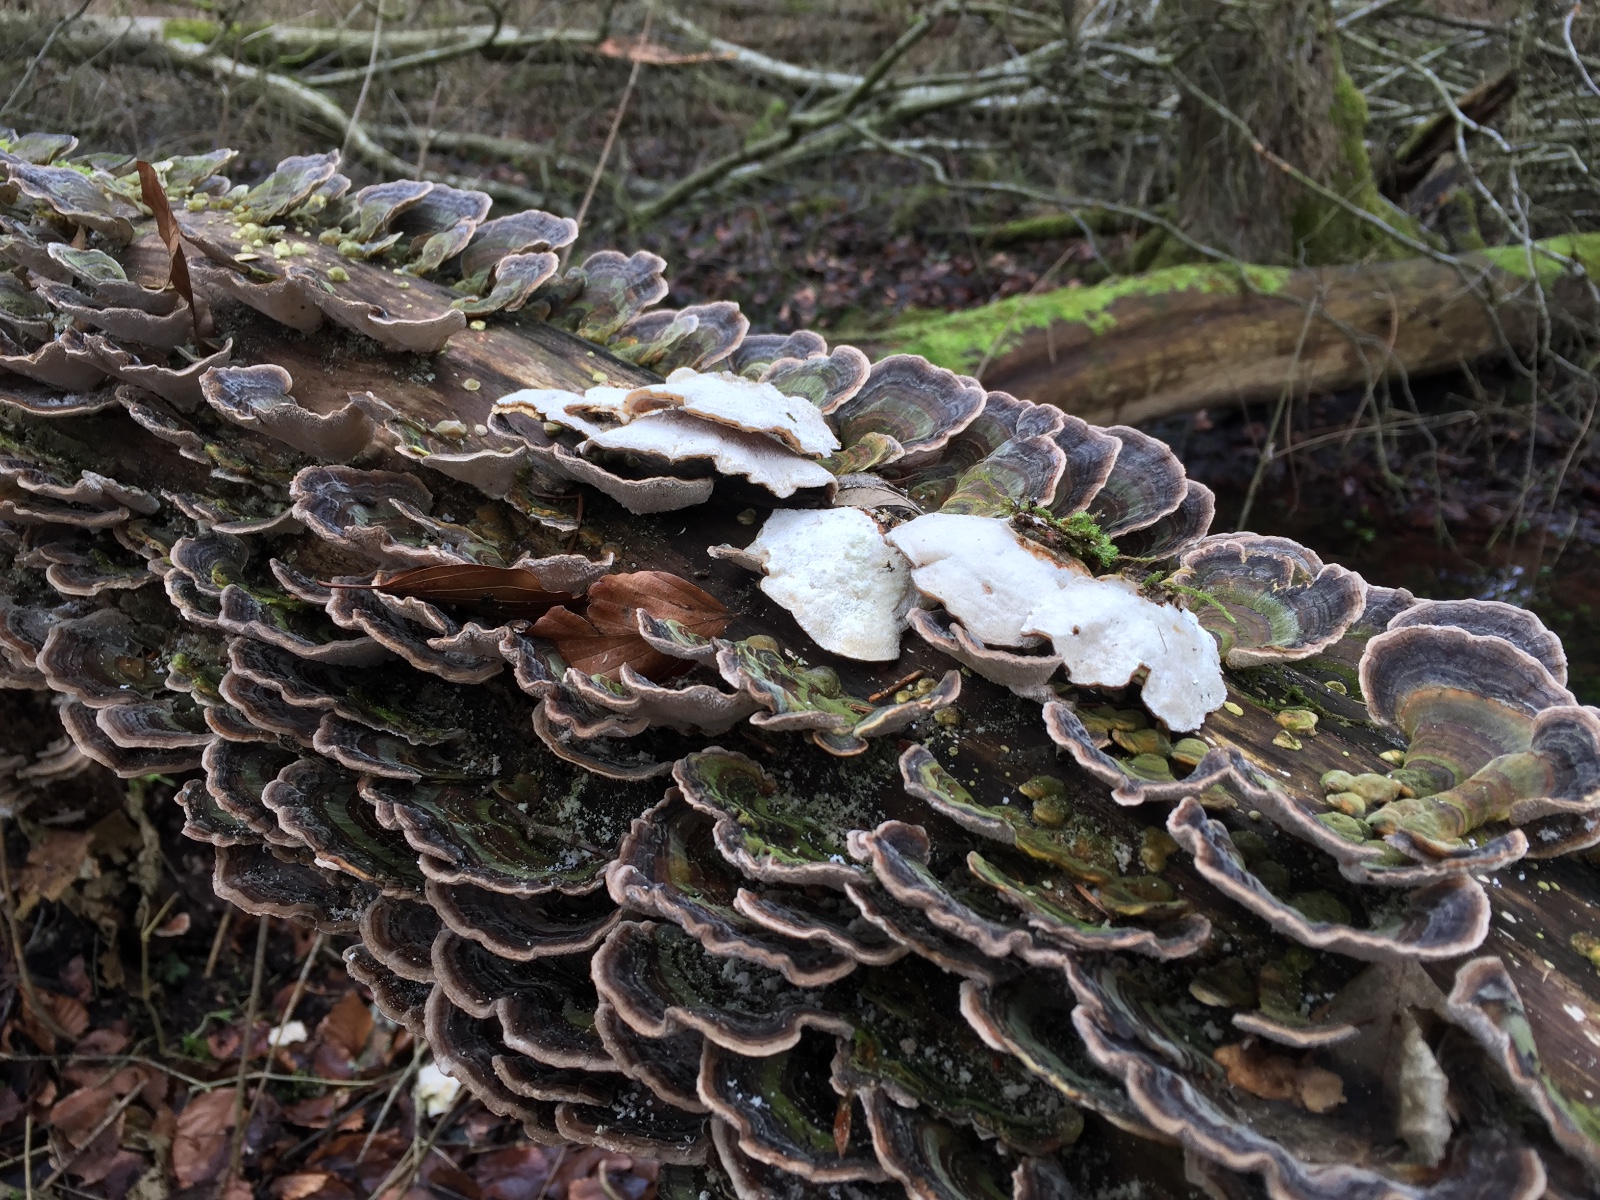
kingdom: Fungi
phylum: Basidiomycota
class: Agaricomycetes
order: Polyporales
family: Polyporaceae
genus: Trametes
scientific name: Trametes versicolor
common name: broget læderporesvamp
